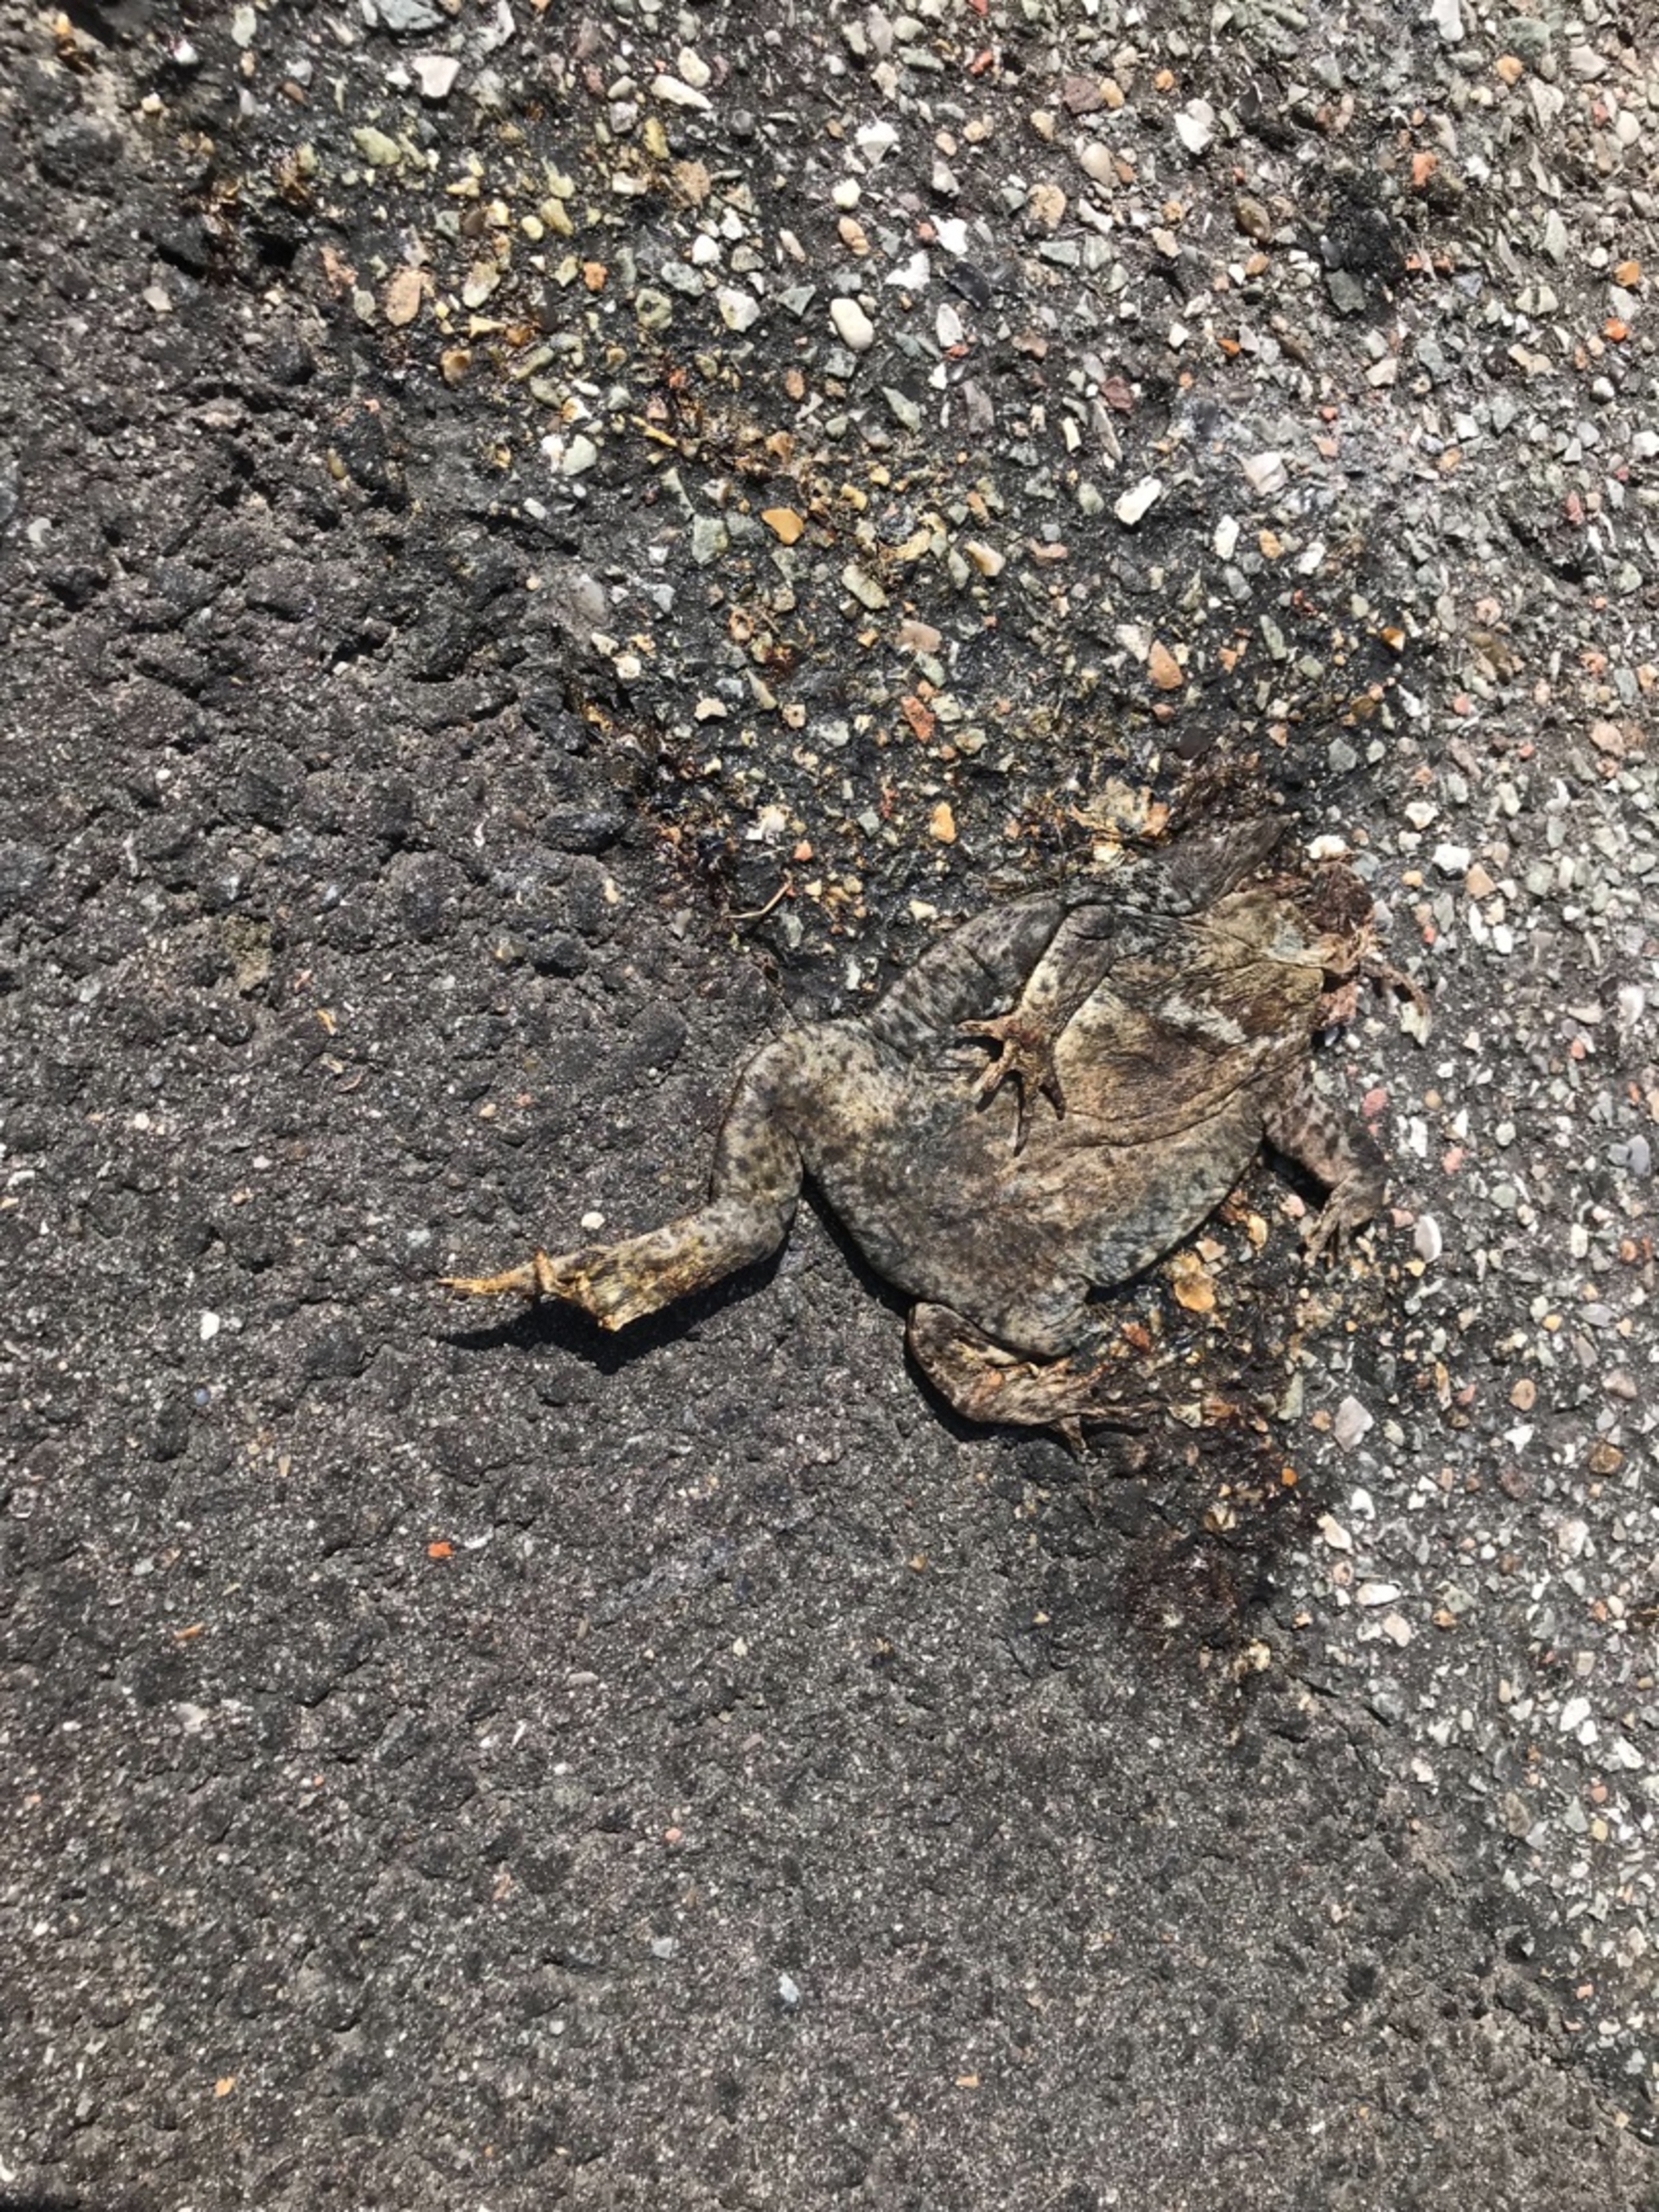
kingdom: Animalia
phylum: Chordata
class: Amphibia
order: Anura
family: Bufonidae
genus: Bufo
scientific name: Bufo bufo
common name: Skrubtudse
